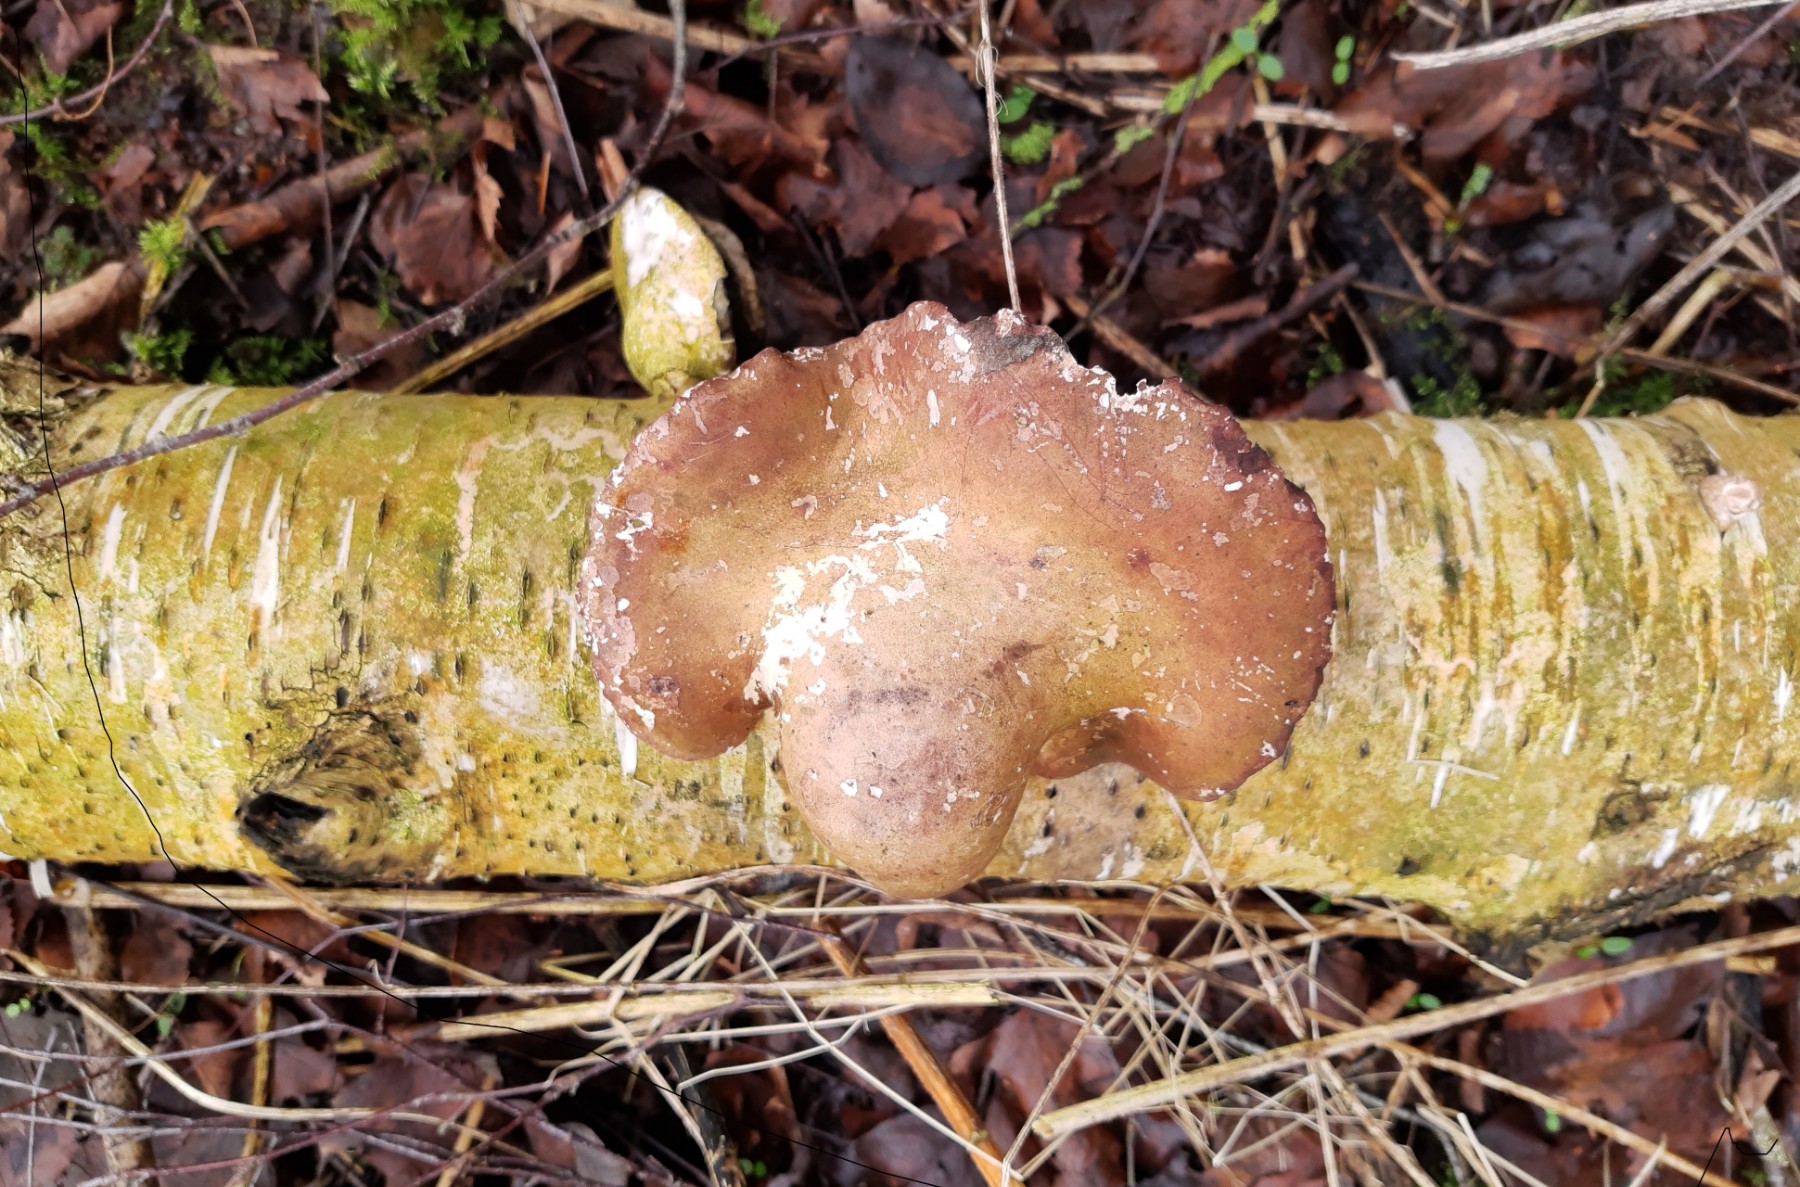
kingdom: Fungi
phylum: Basidiomycota
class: Agaricomycetes
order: Polyporales
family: Fomitopsidaceae
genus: Fomitopsis
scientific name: Fomitopsis betulina
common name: birkeporesvamp
